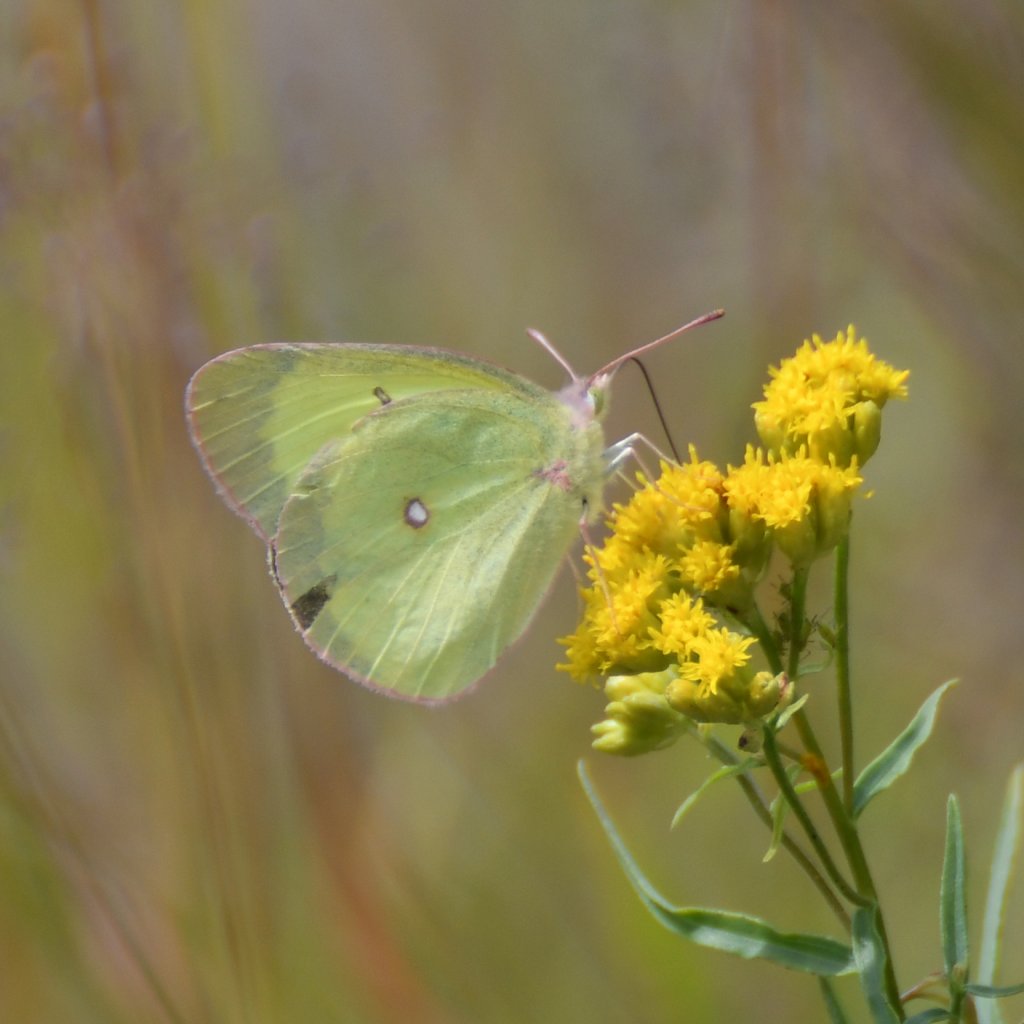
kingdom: Animalia
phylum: Arthropoda
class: Insecta
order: Lepidoptera
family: Pieridae
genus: Colias
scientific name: Colias interior
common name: Pink-edged Sulphur
